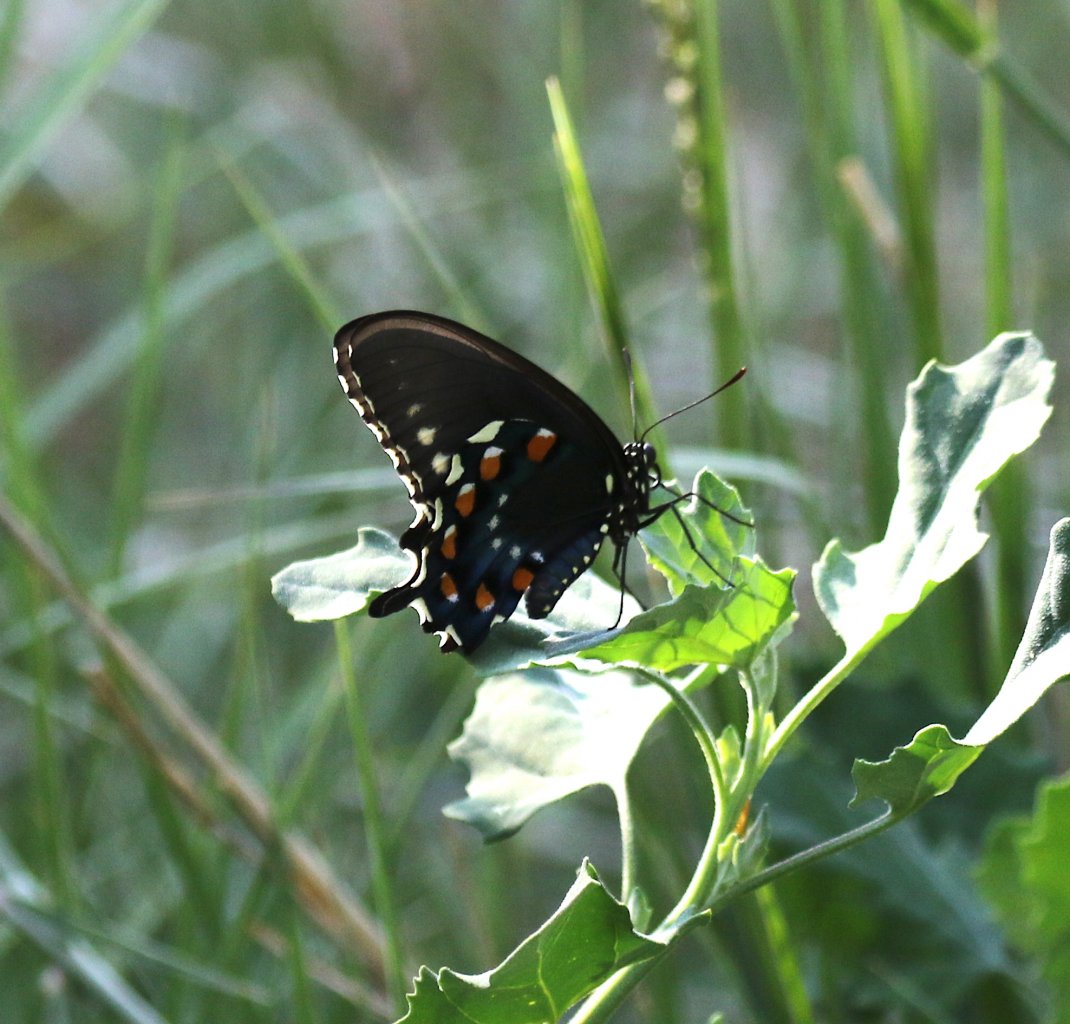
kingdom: Animalia
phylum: Arthropoda
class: Insecta
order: Lepidoptera
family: Papilionidae
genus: Battus
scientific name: Battus philenor
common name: Pipevine Swallowtail
